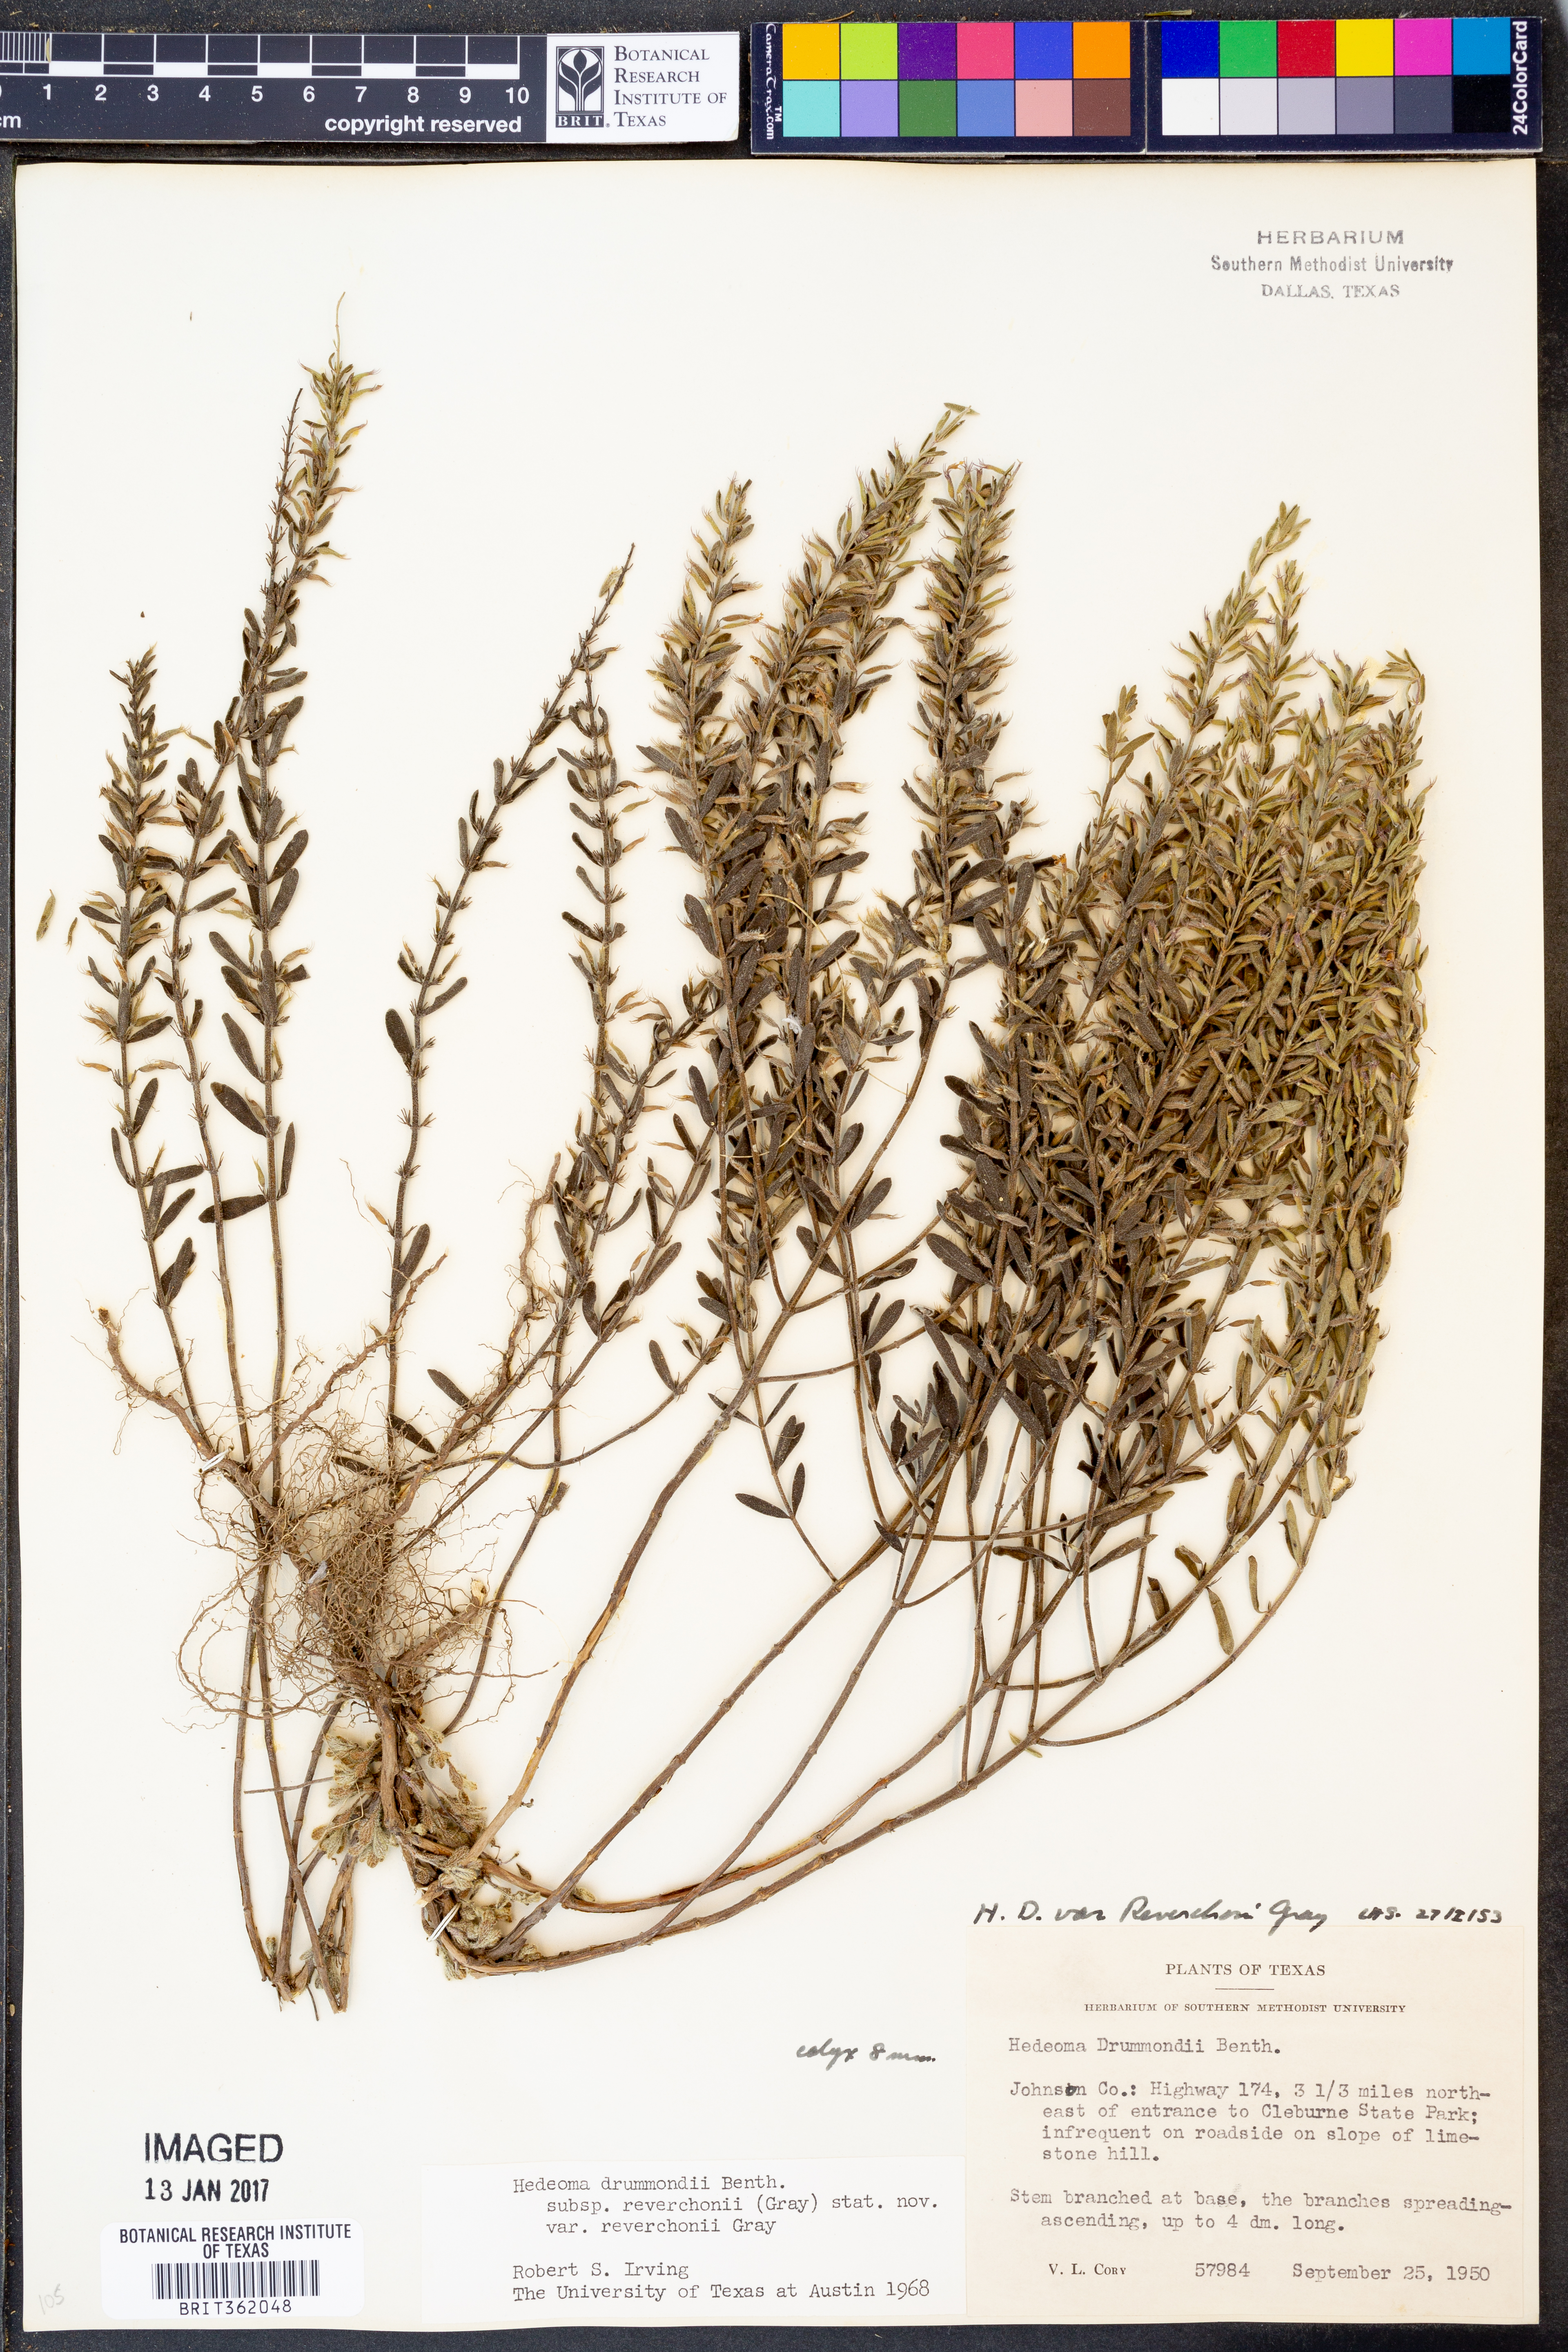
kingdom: Plantae
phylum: Tracheophyta
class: Magnoliopsida
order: Lamiales
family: Lamiaceae
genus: Hedeoma
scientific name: Hedeoma reverchonii
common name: Reverchon's false penny-royal
